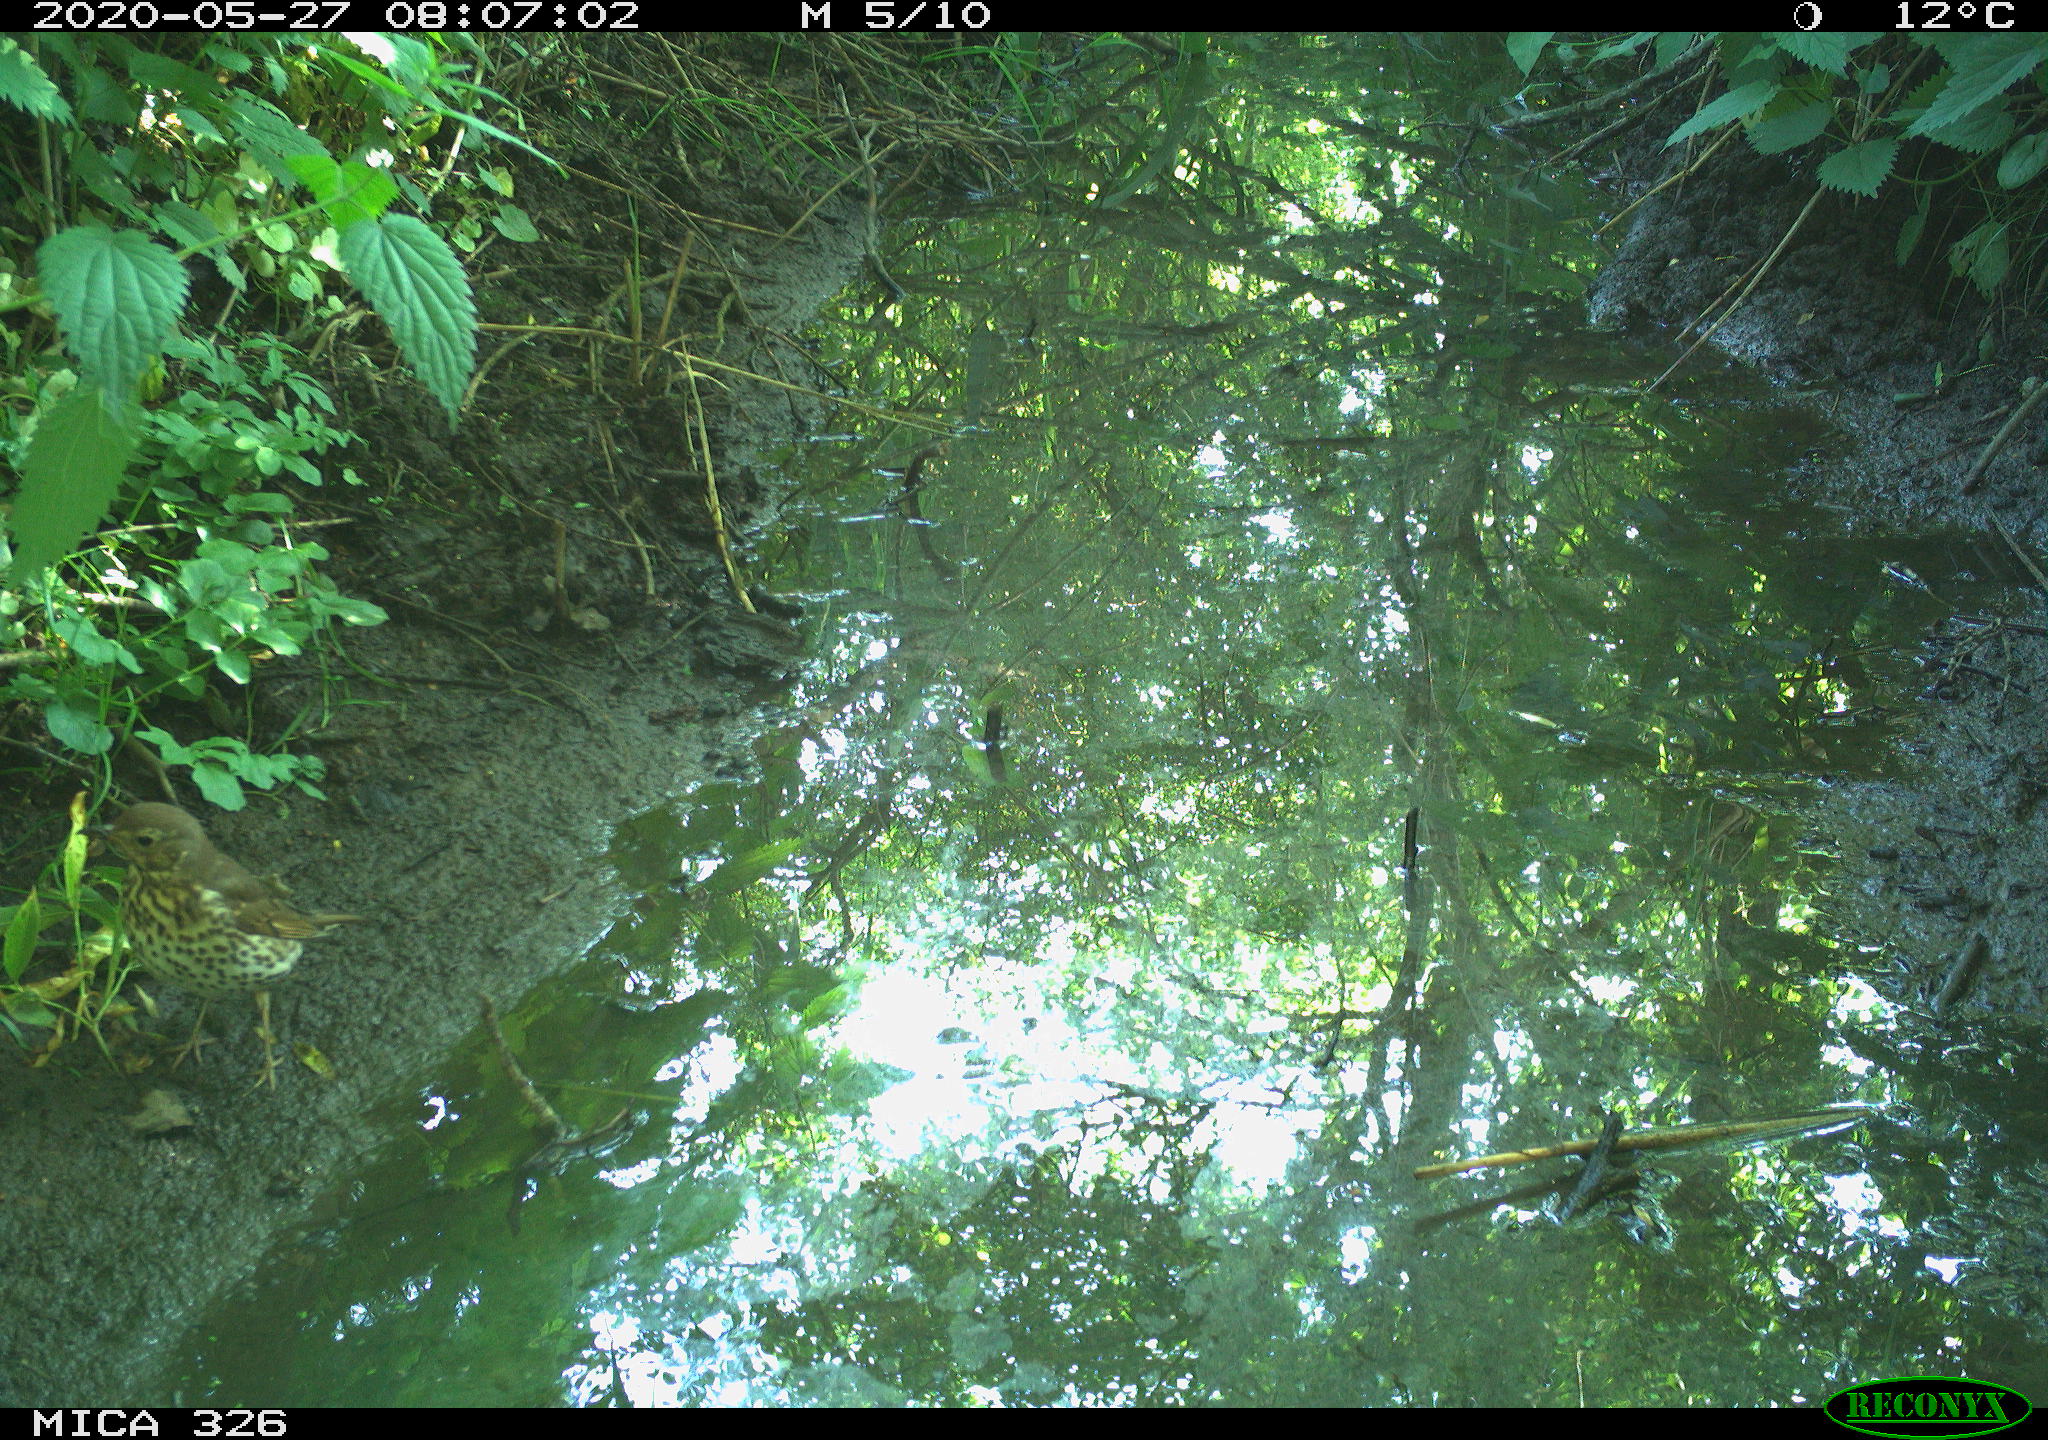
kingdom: Animalia
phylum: Chordata
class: Aves
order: Passeriformes
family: Turdidae
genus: Turdus
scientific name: Turdus philomelos
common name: Song thrush
